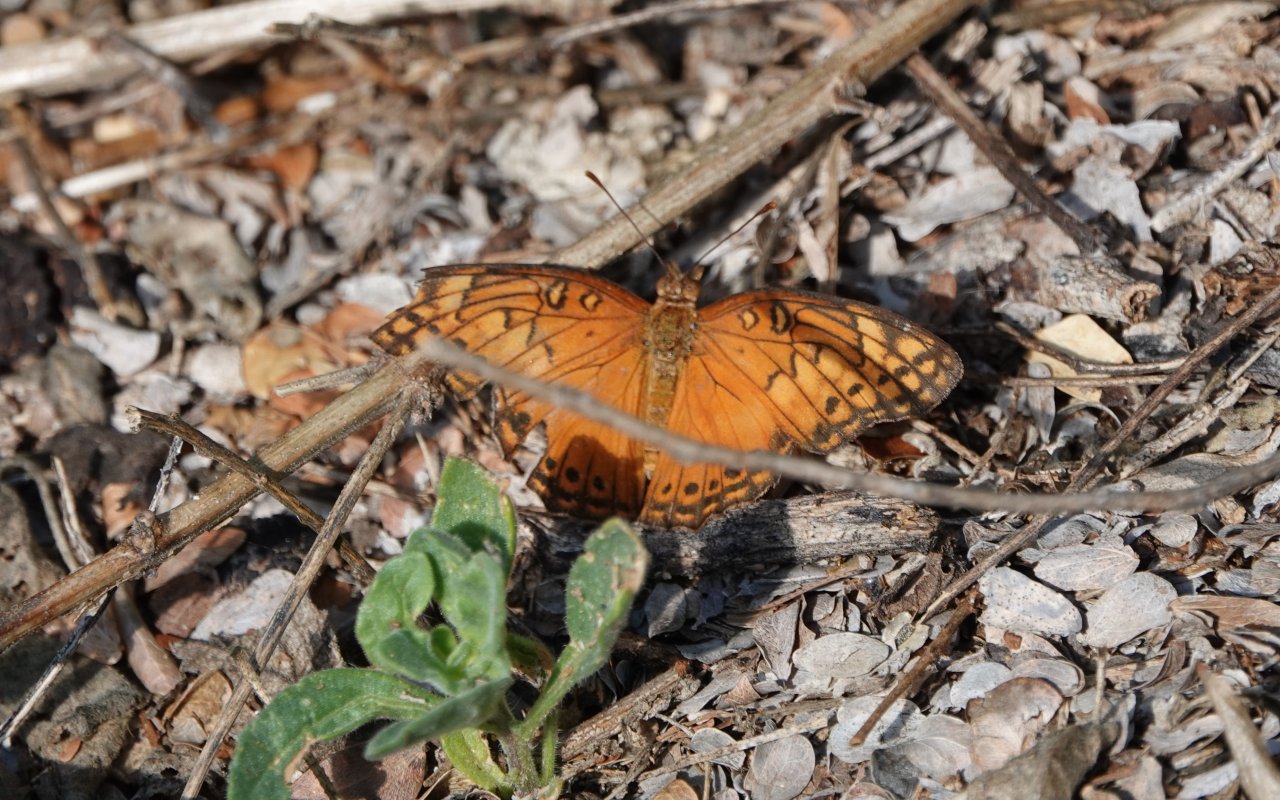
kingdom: Animalia
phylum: Arthropoda
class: Insecta
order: Lepidoptera
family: Nymphalidae
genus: Euptoieta
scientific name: Euptoieta hegesia
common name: Mexican Fritillary
